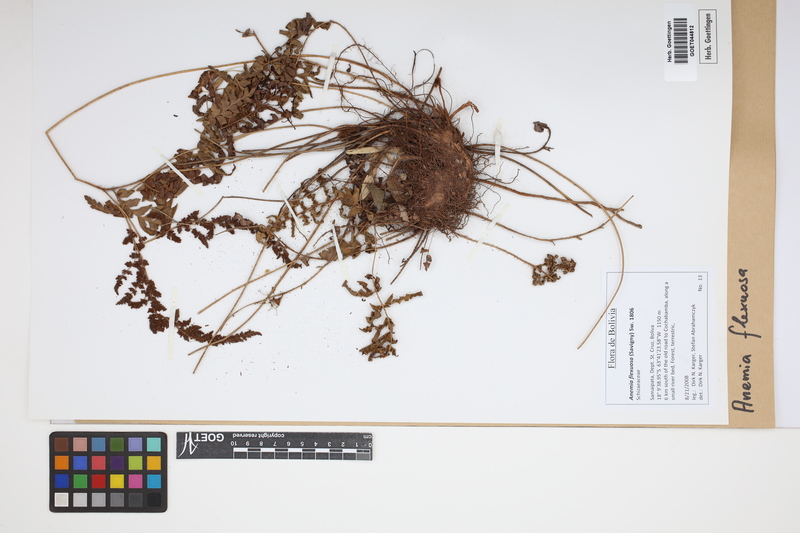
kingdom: Plantae
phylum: Tracheophyta
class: Polypodiopsida
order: Schizaeales
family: Anemiaceae
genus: Anemia
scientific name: Anemia flexuosa
